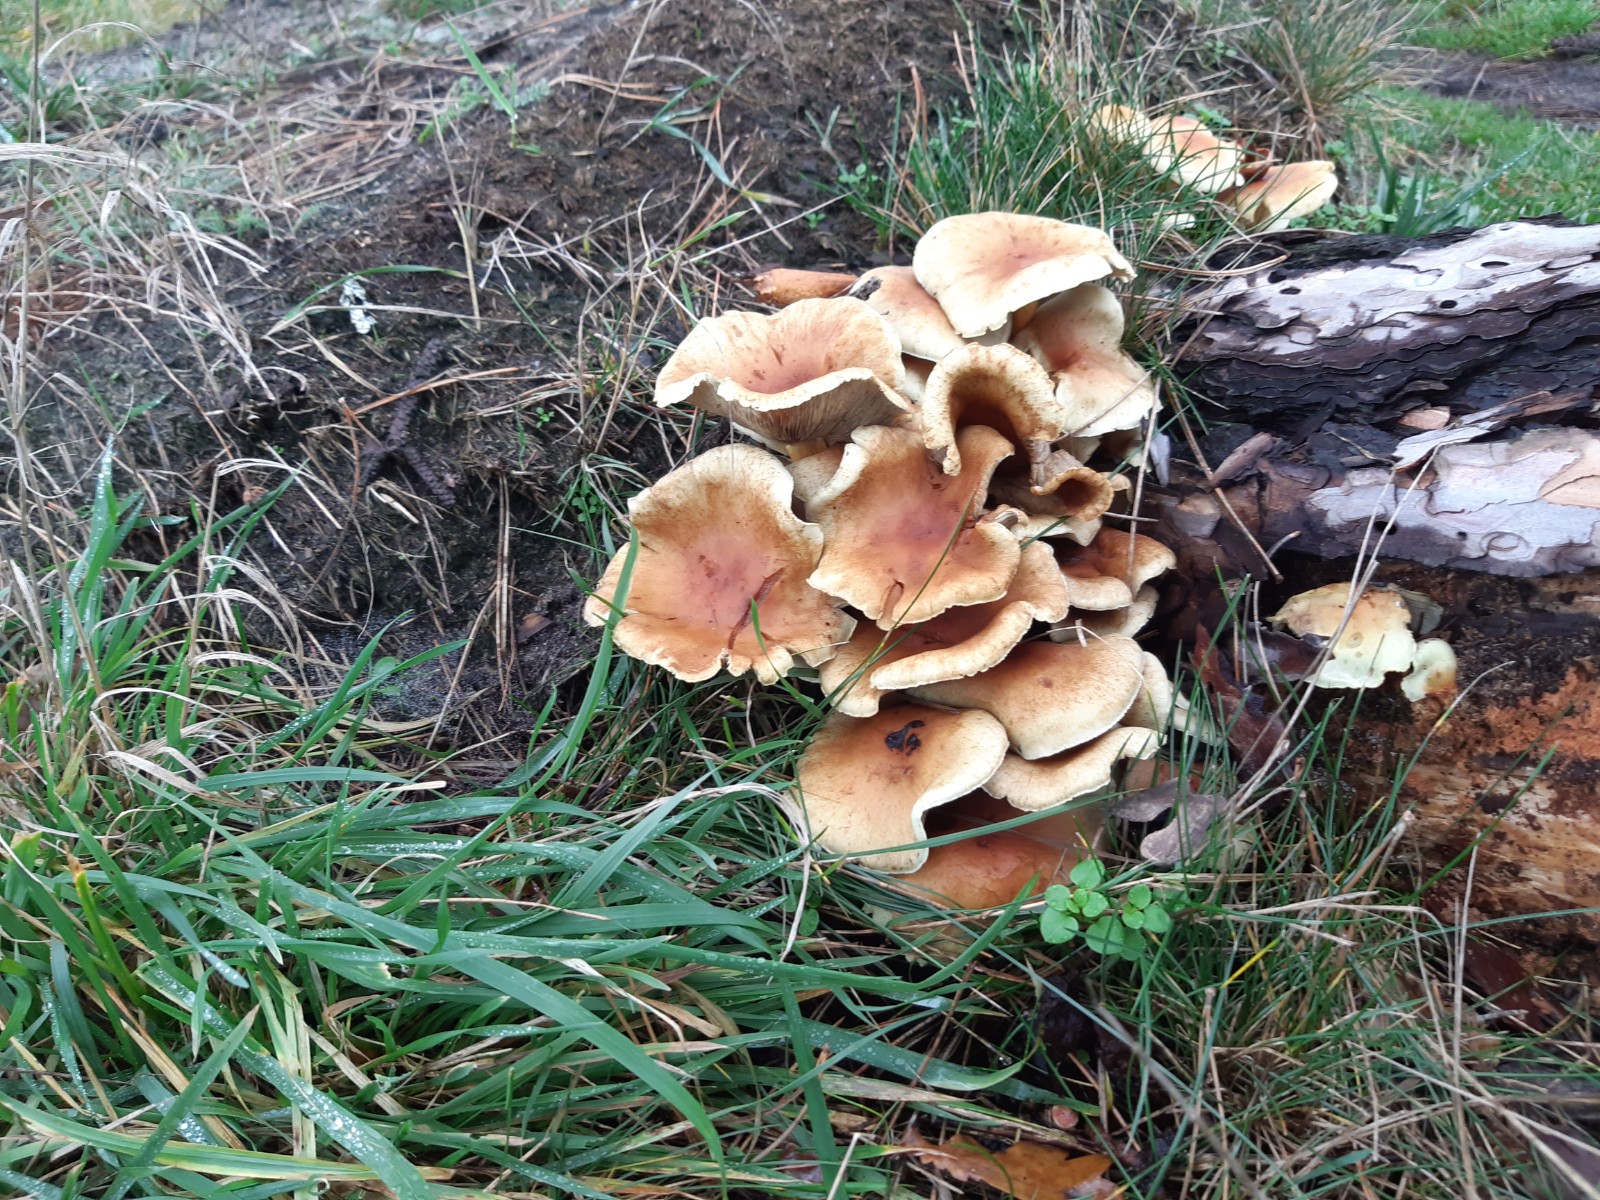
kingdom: Fungi
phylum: Basidiomycota
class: Agaricomycetes
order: Agaricales
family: Strophariaceae
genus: Hypholoma
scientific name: Hypholoma fasciculare
